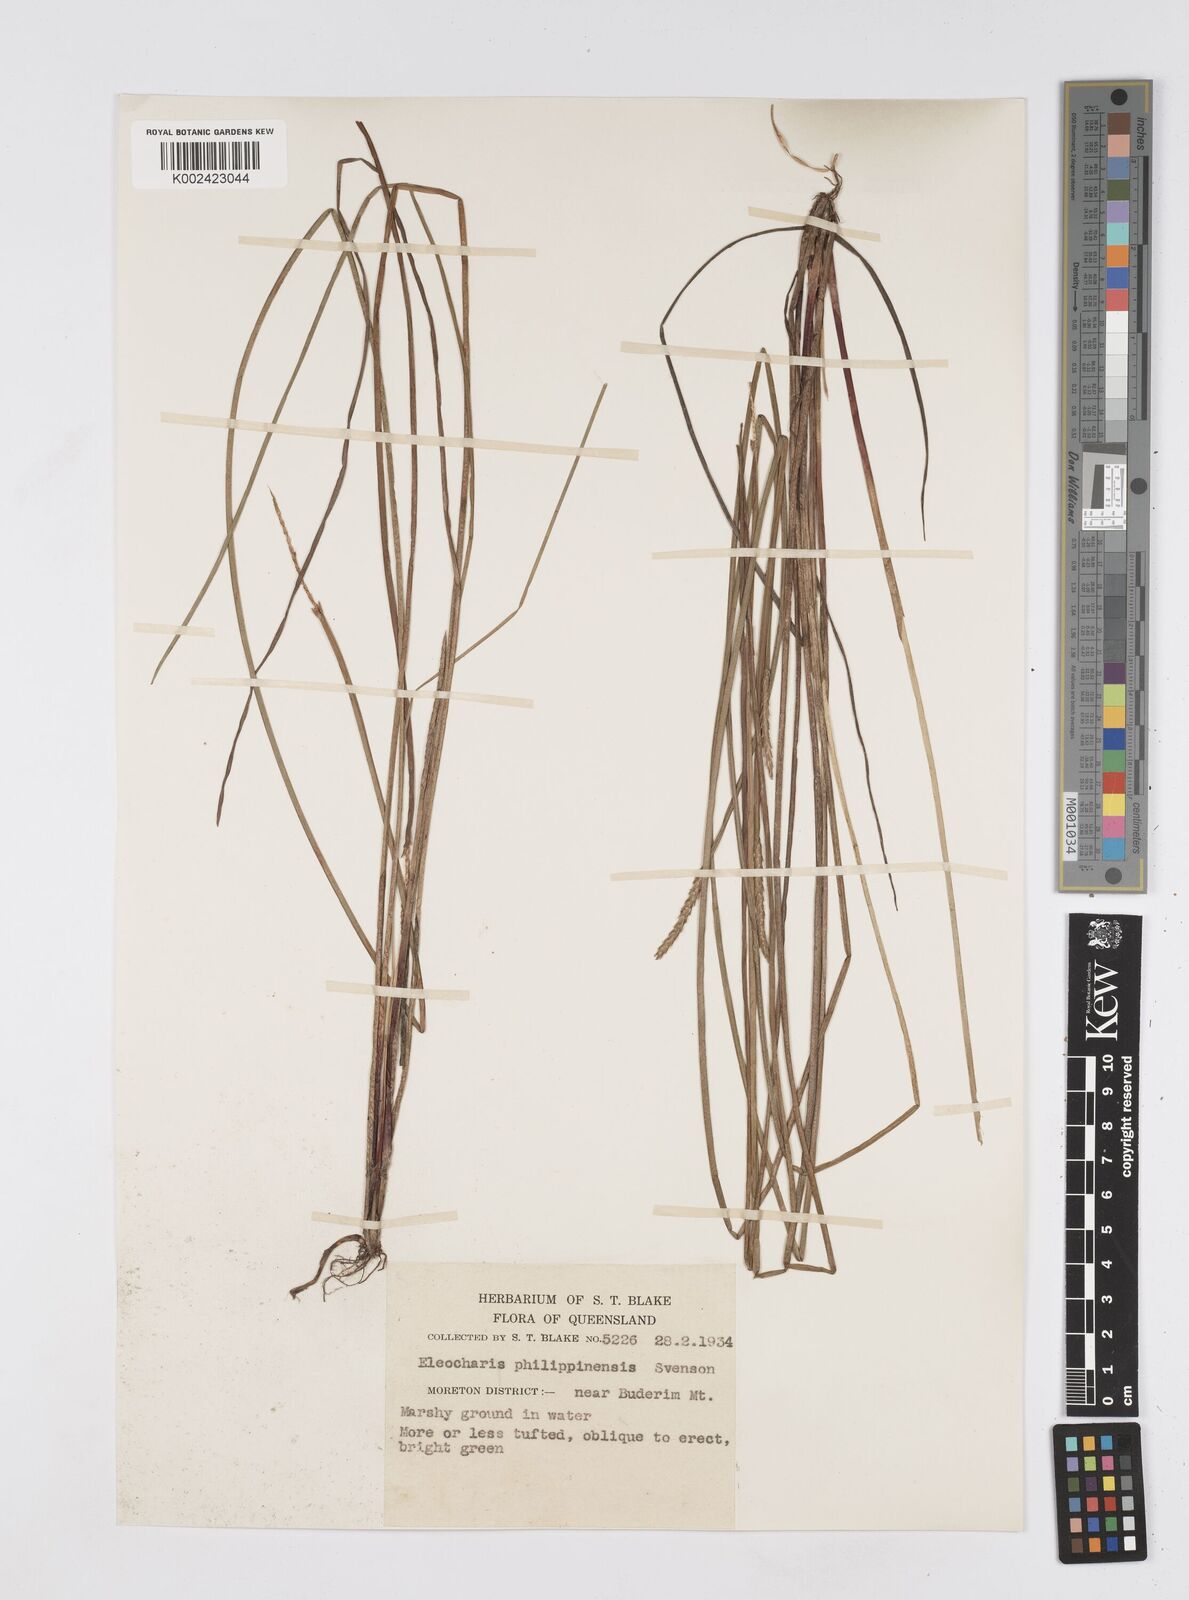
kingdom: Plantae
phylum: Tracheophyta
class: Liliopsida
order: Poales
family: Cyperaceae
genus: Eleocharis
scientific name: Eleocharis nuda
